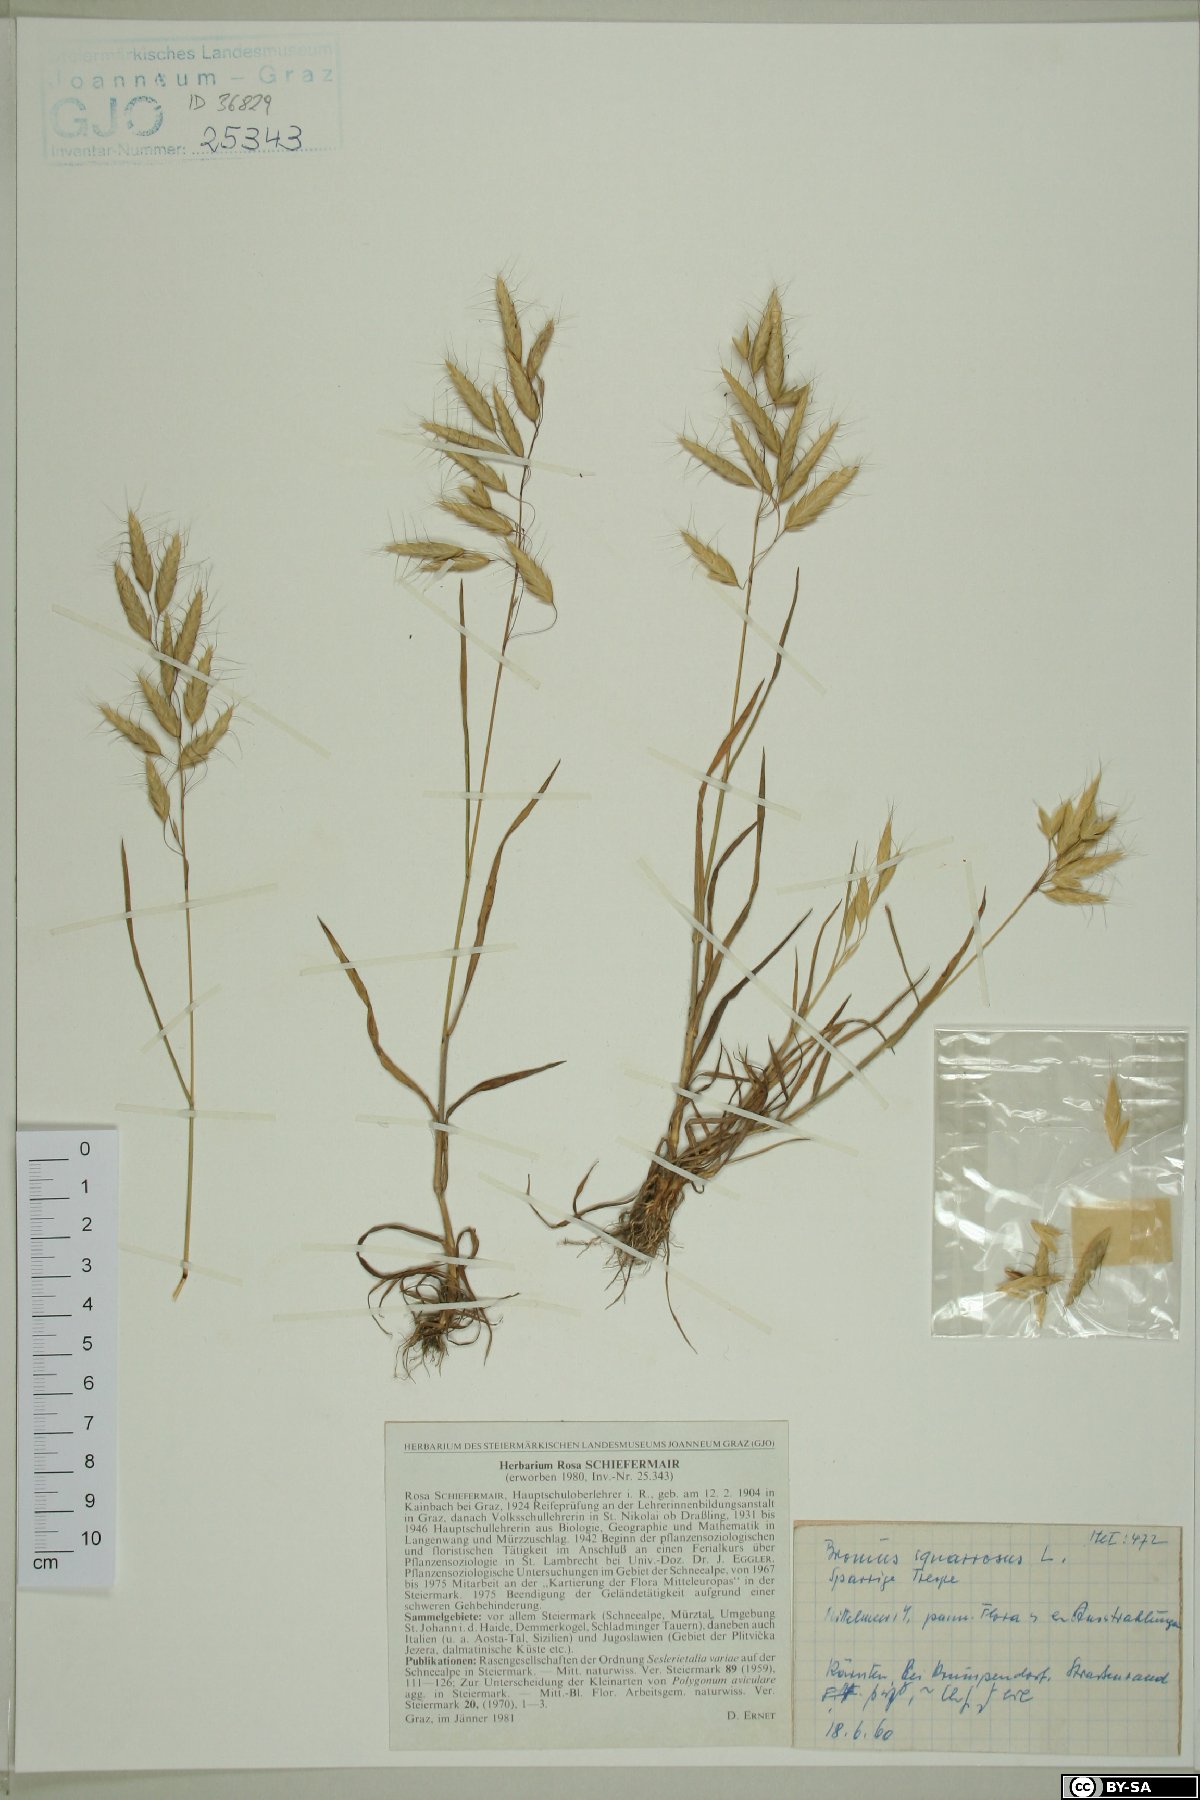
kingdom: Plantae
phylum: Tracheophyta
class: Liliopsida
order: Poales
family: Poaceae
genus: Bromus
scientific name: Bromus squarrosus
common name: Corn brome
